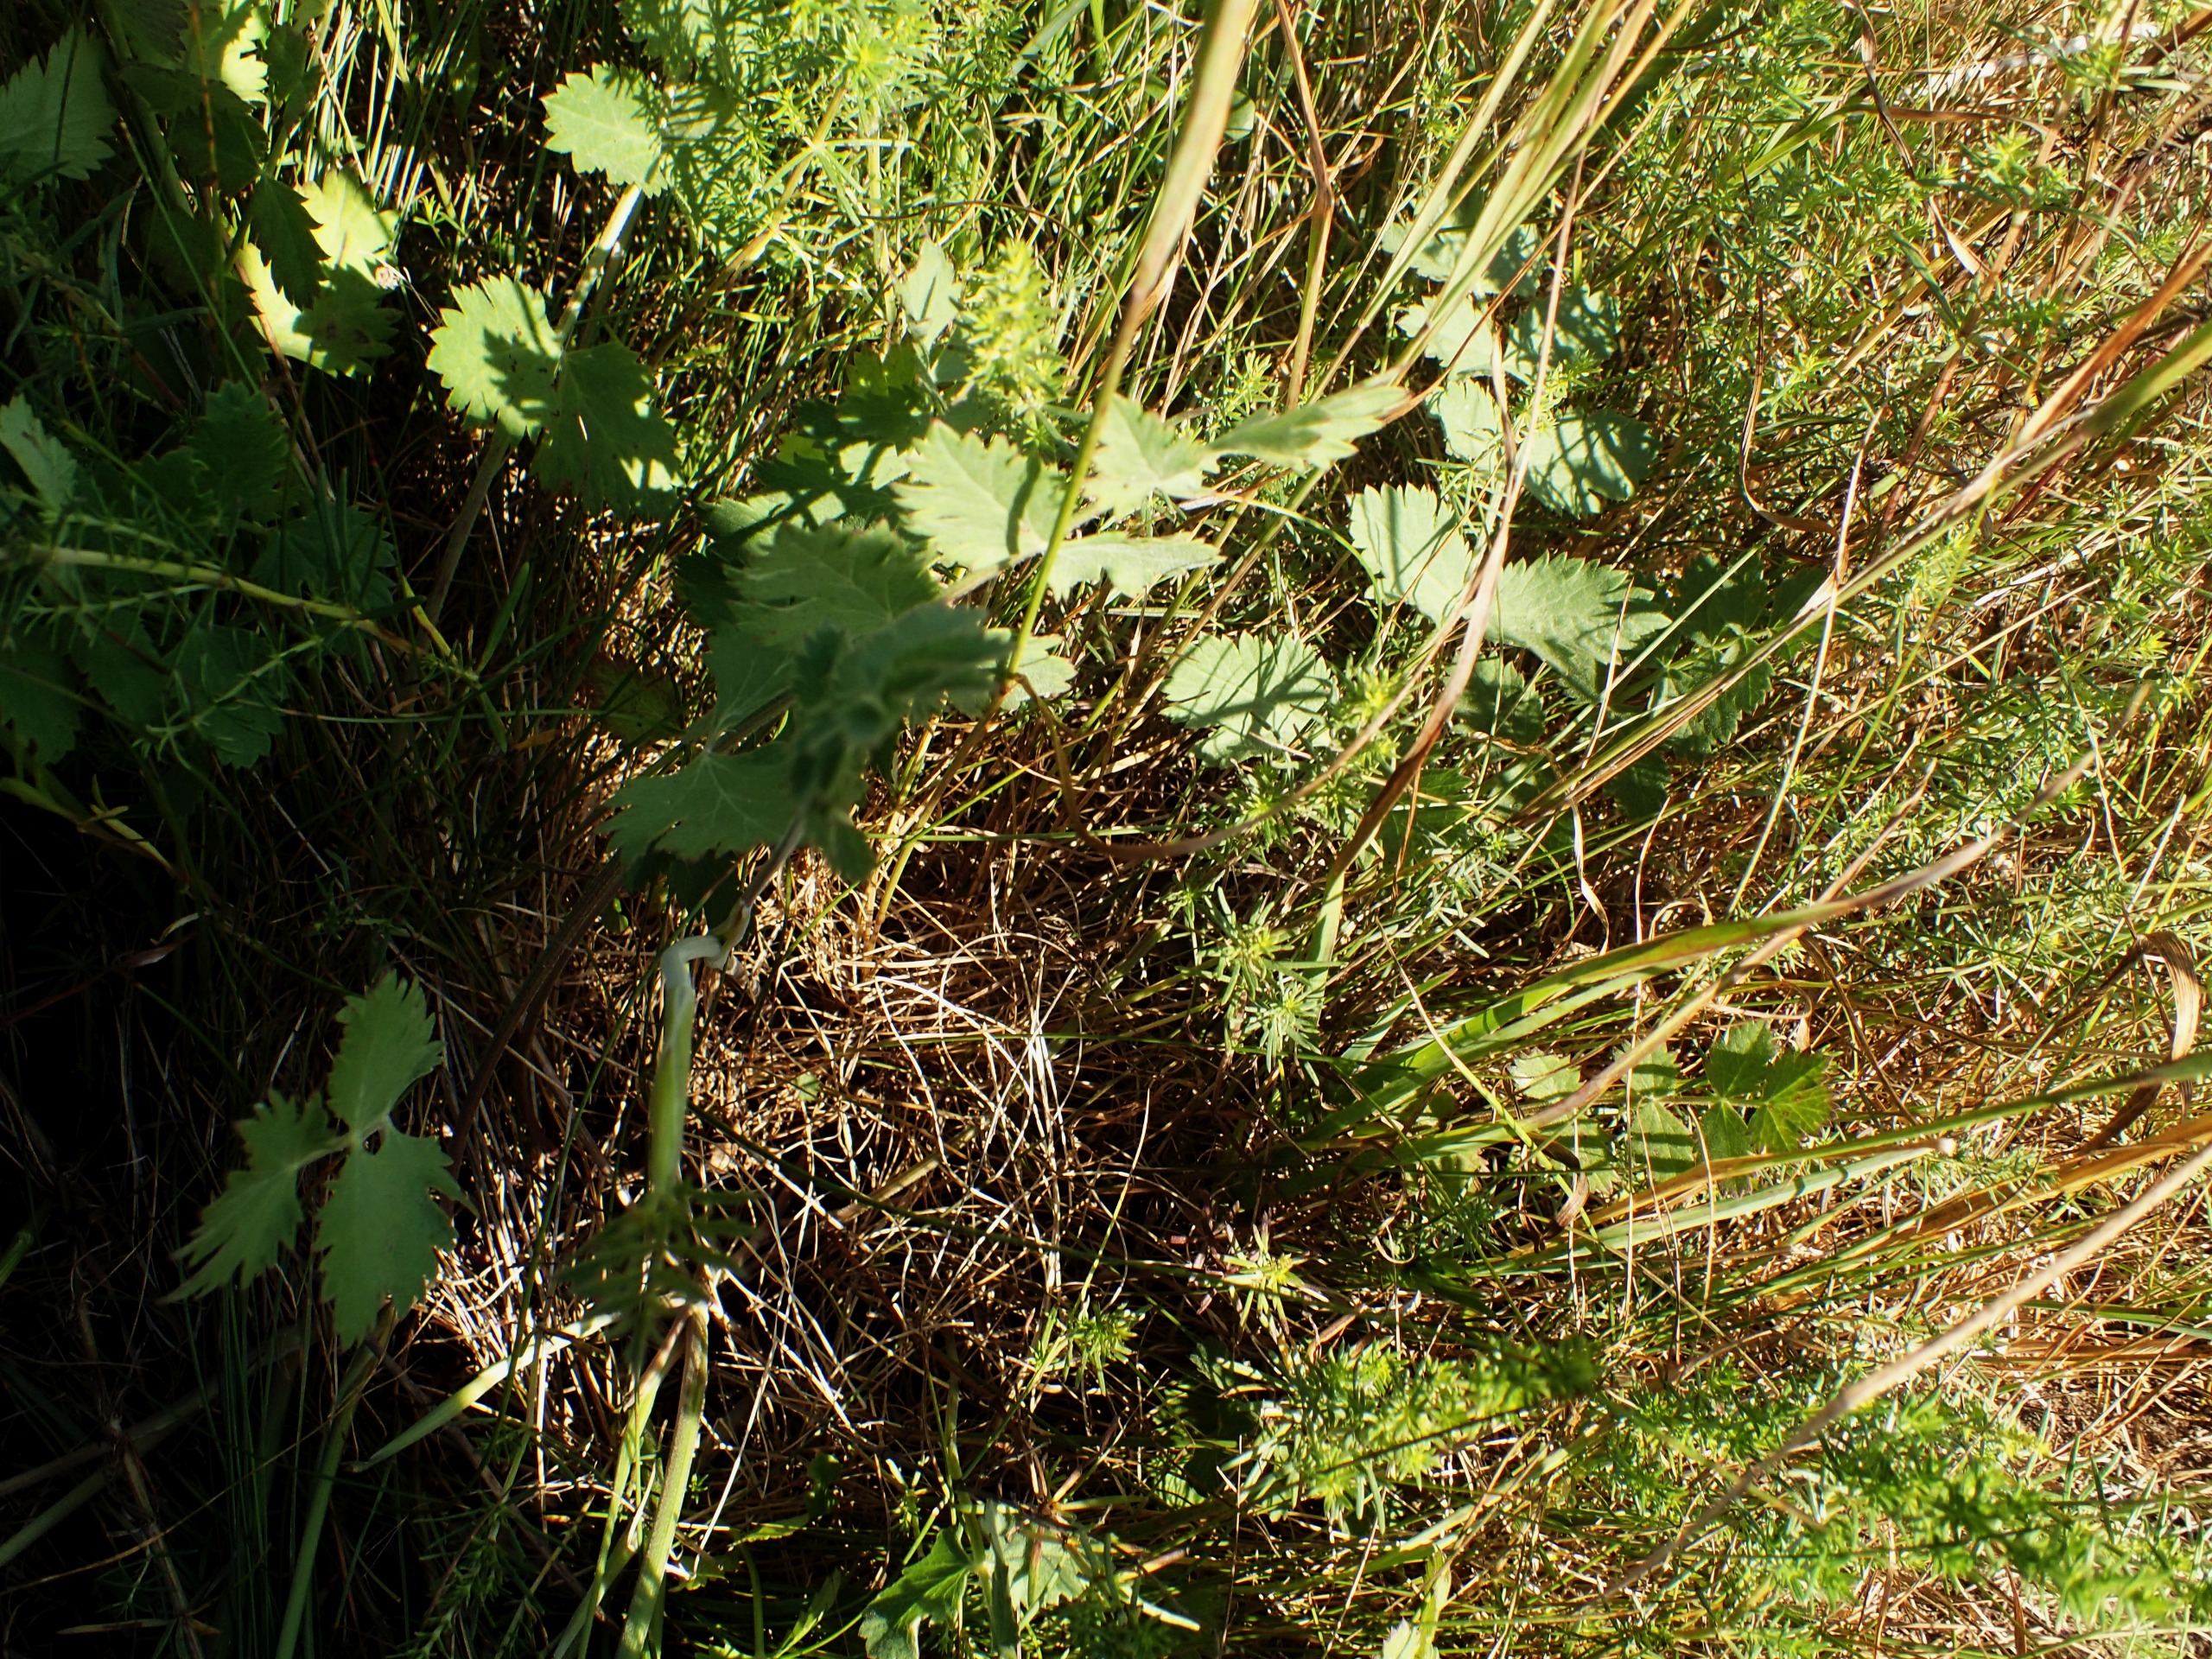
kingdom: Plantae
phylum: Tracheophyta
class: Magnoliopsida
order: Apiales
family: Apiaceae
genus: Pimpinella
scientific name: Pimpinella saxifraga
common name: Almindelig pimpinelle
